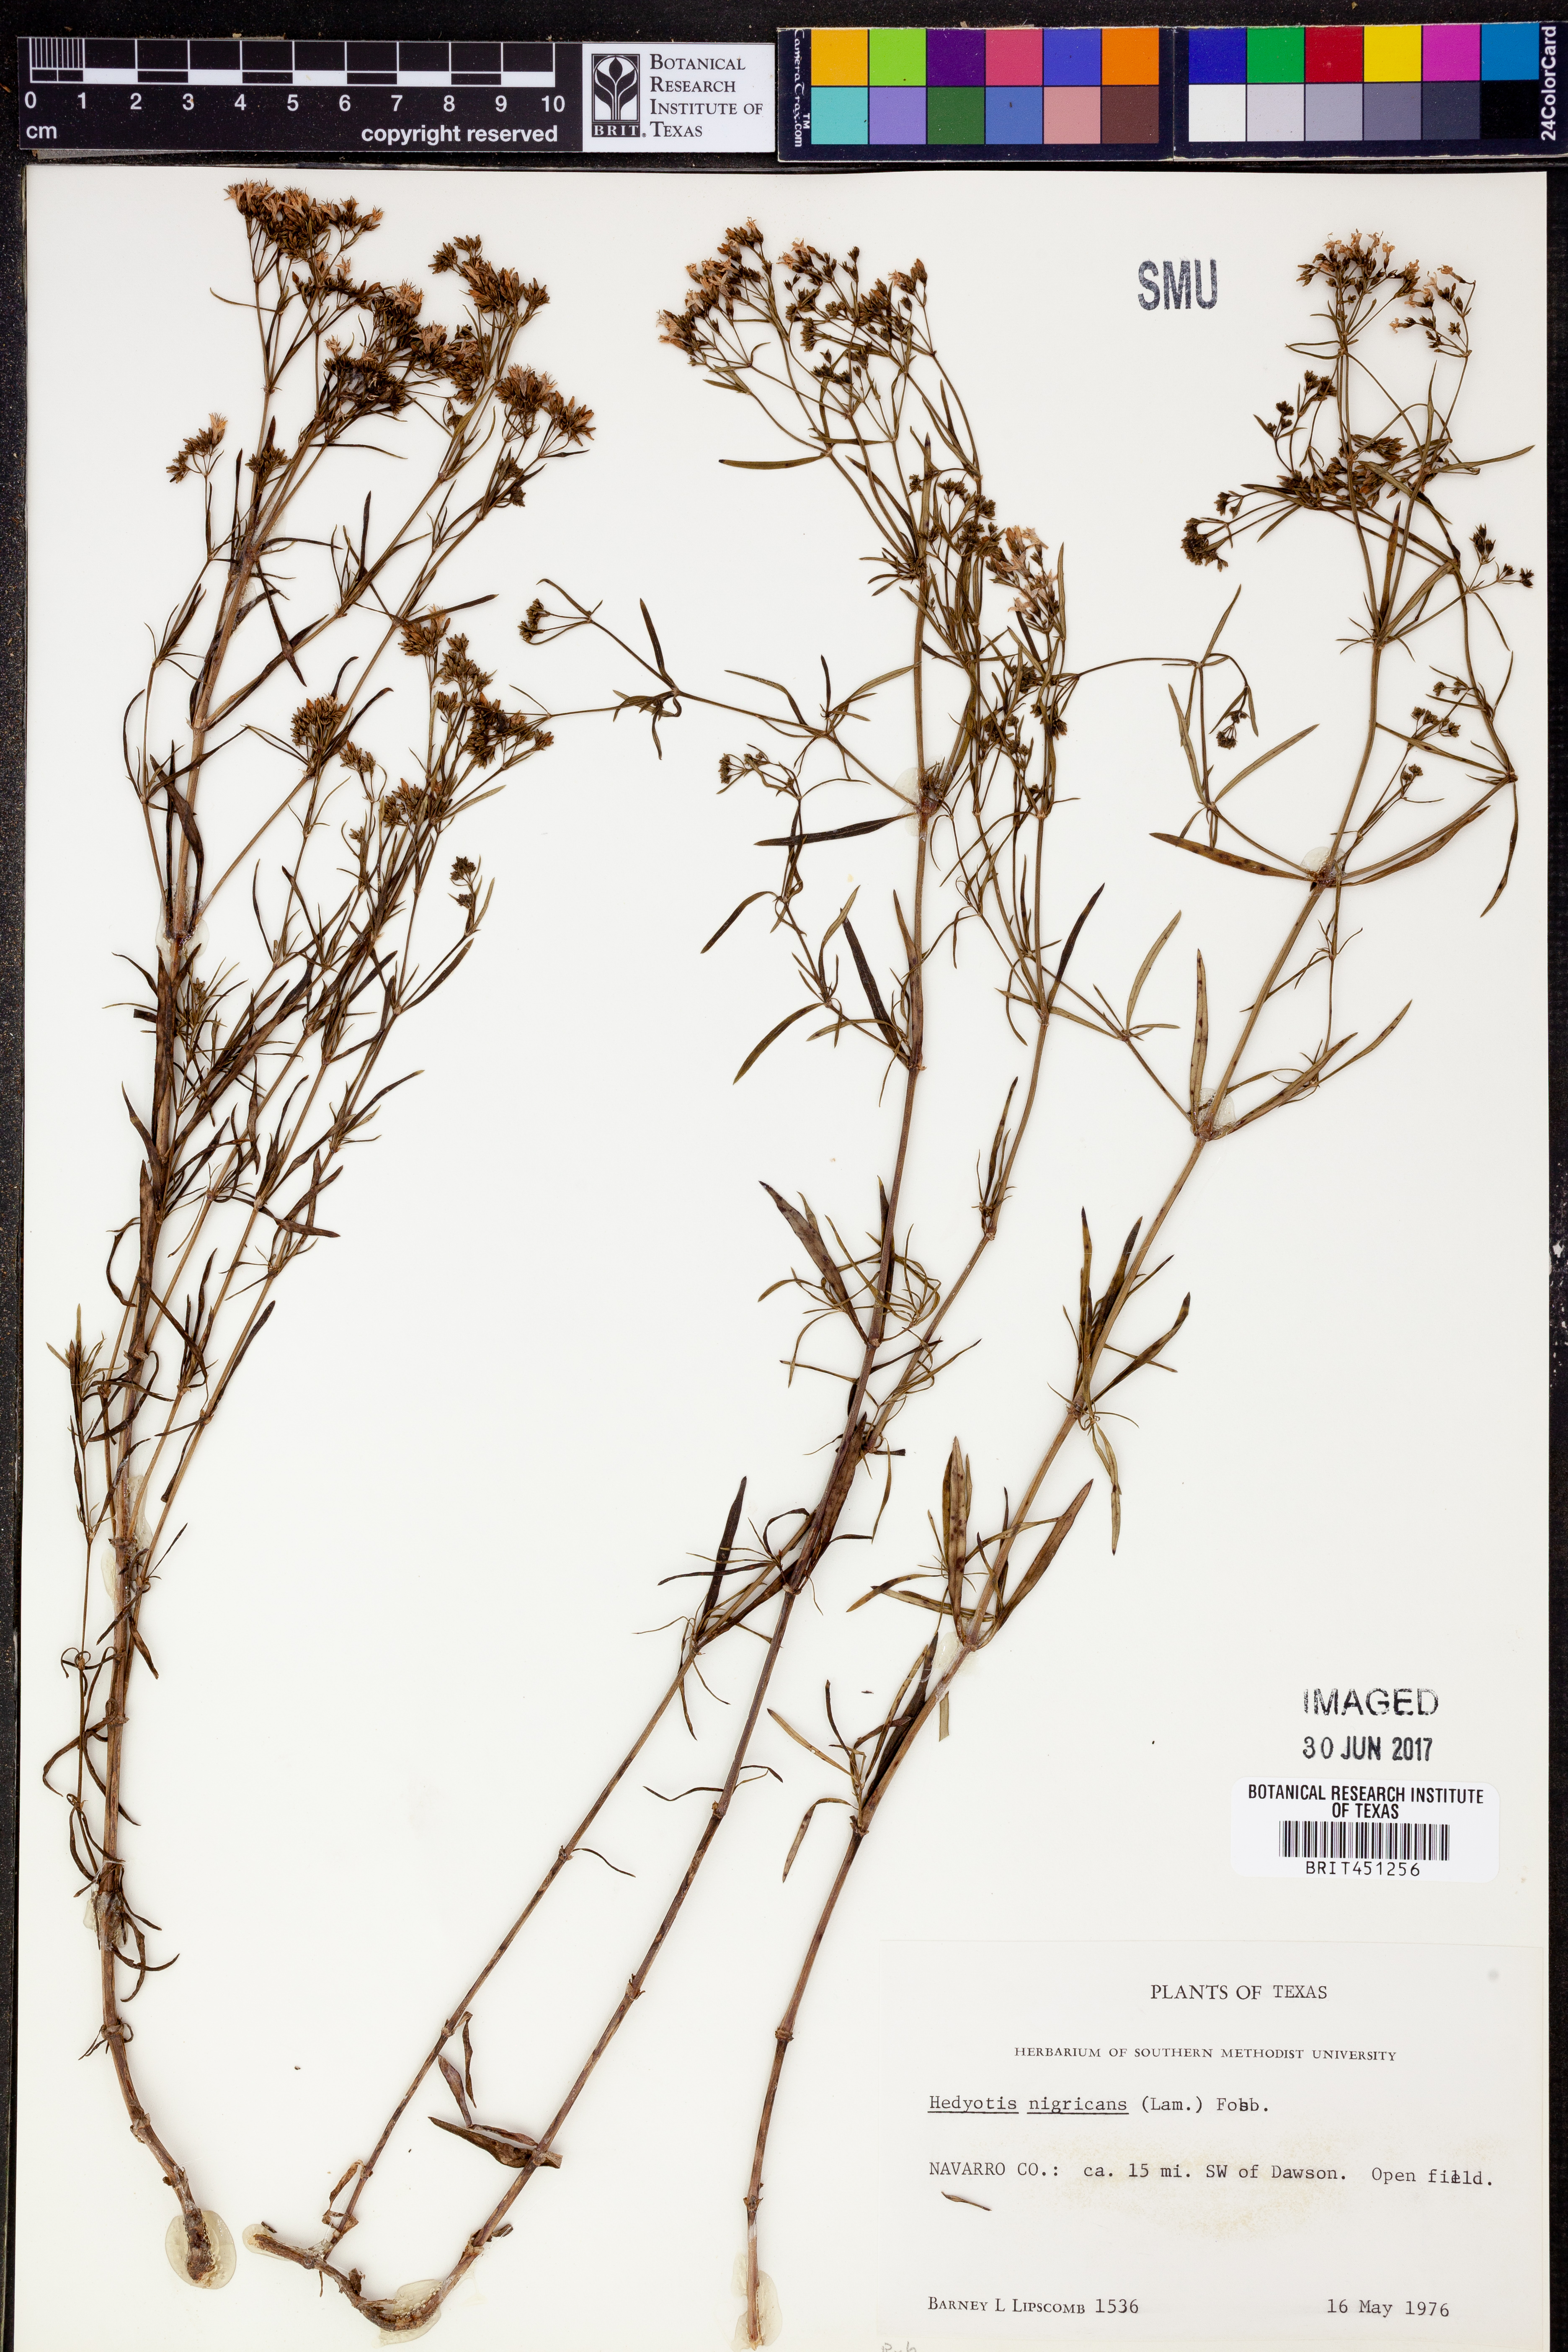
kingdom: Plantae
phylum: Tracheophyta
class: Magnoliopsida
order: Gentianales
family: Rubiaceae
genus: Stenaria
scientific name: Stenaria nigricans
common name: Diamondflowers
